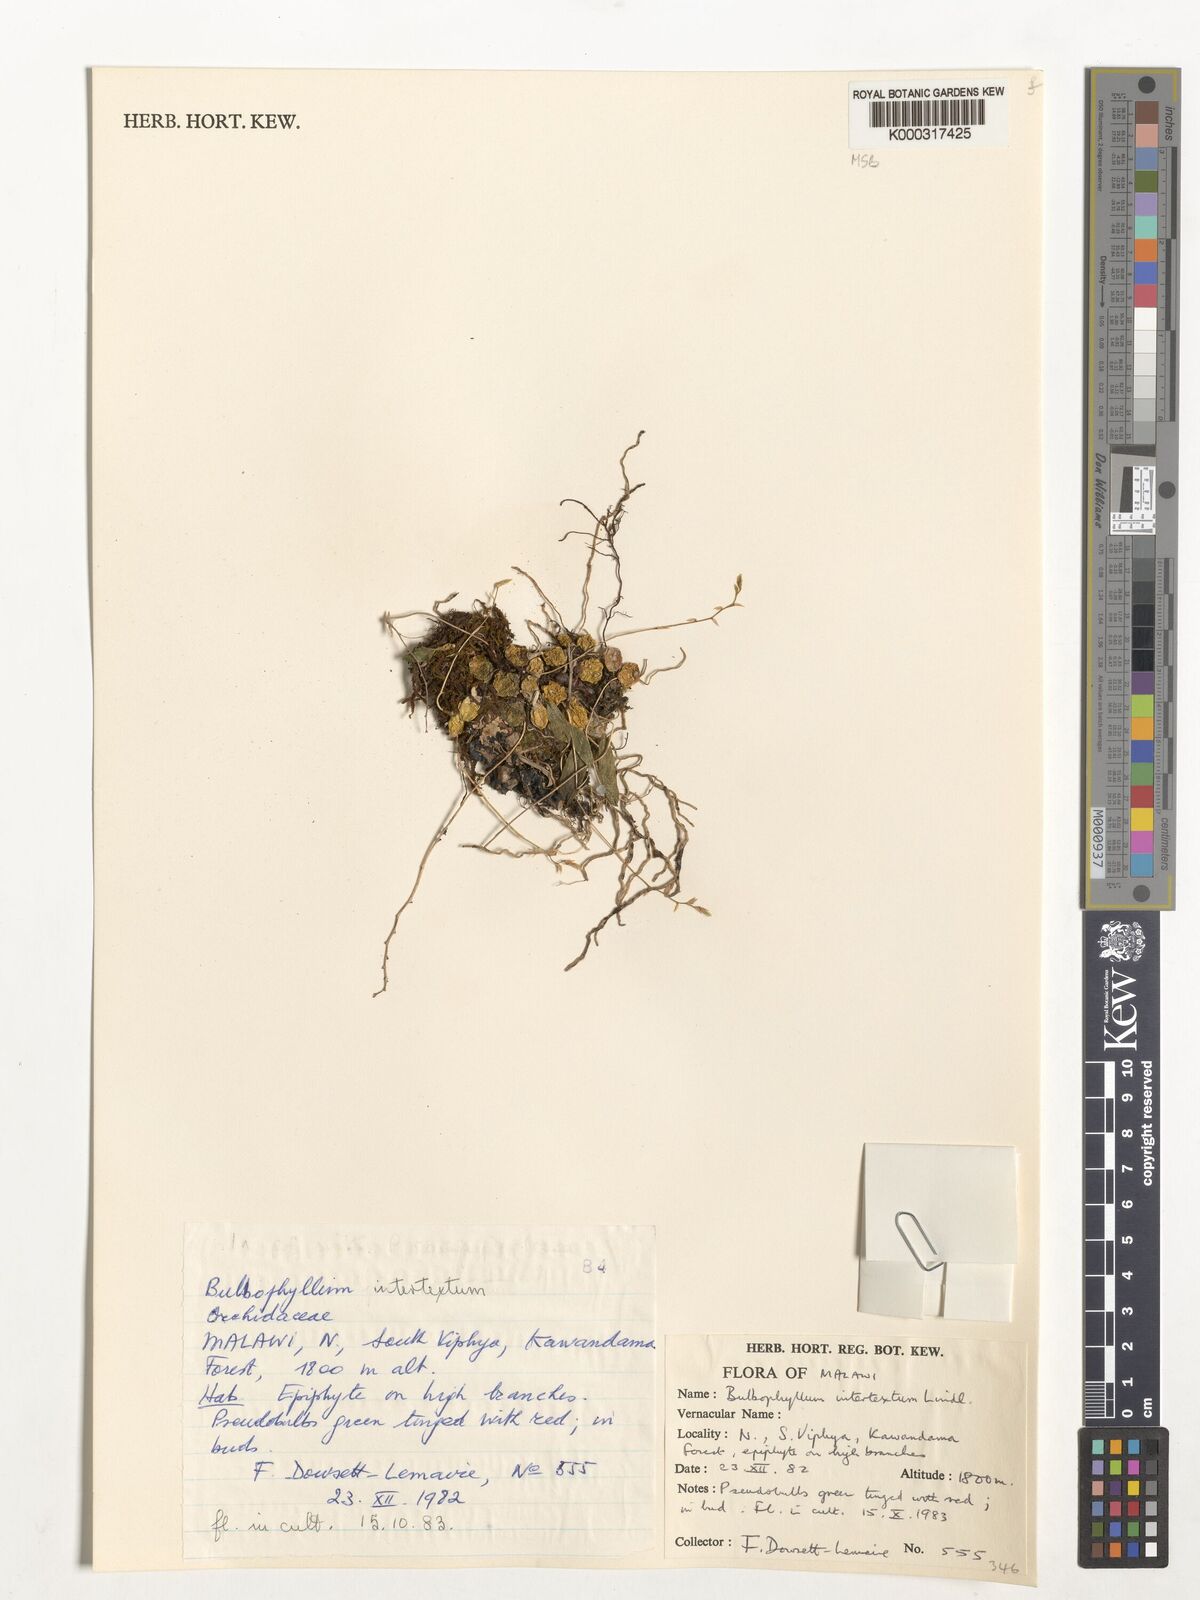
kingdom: Plantae
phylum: Tracheophyta
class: Liliopsida
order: Asparagales
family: Orchidaceae
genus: Bulbophyllum
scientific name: Bulbophyllum intertextum
